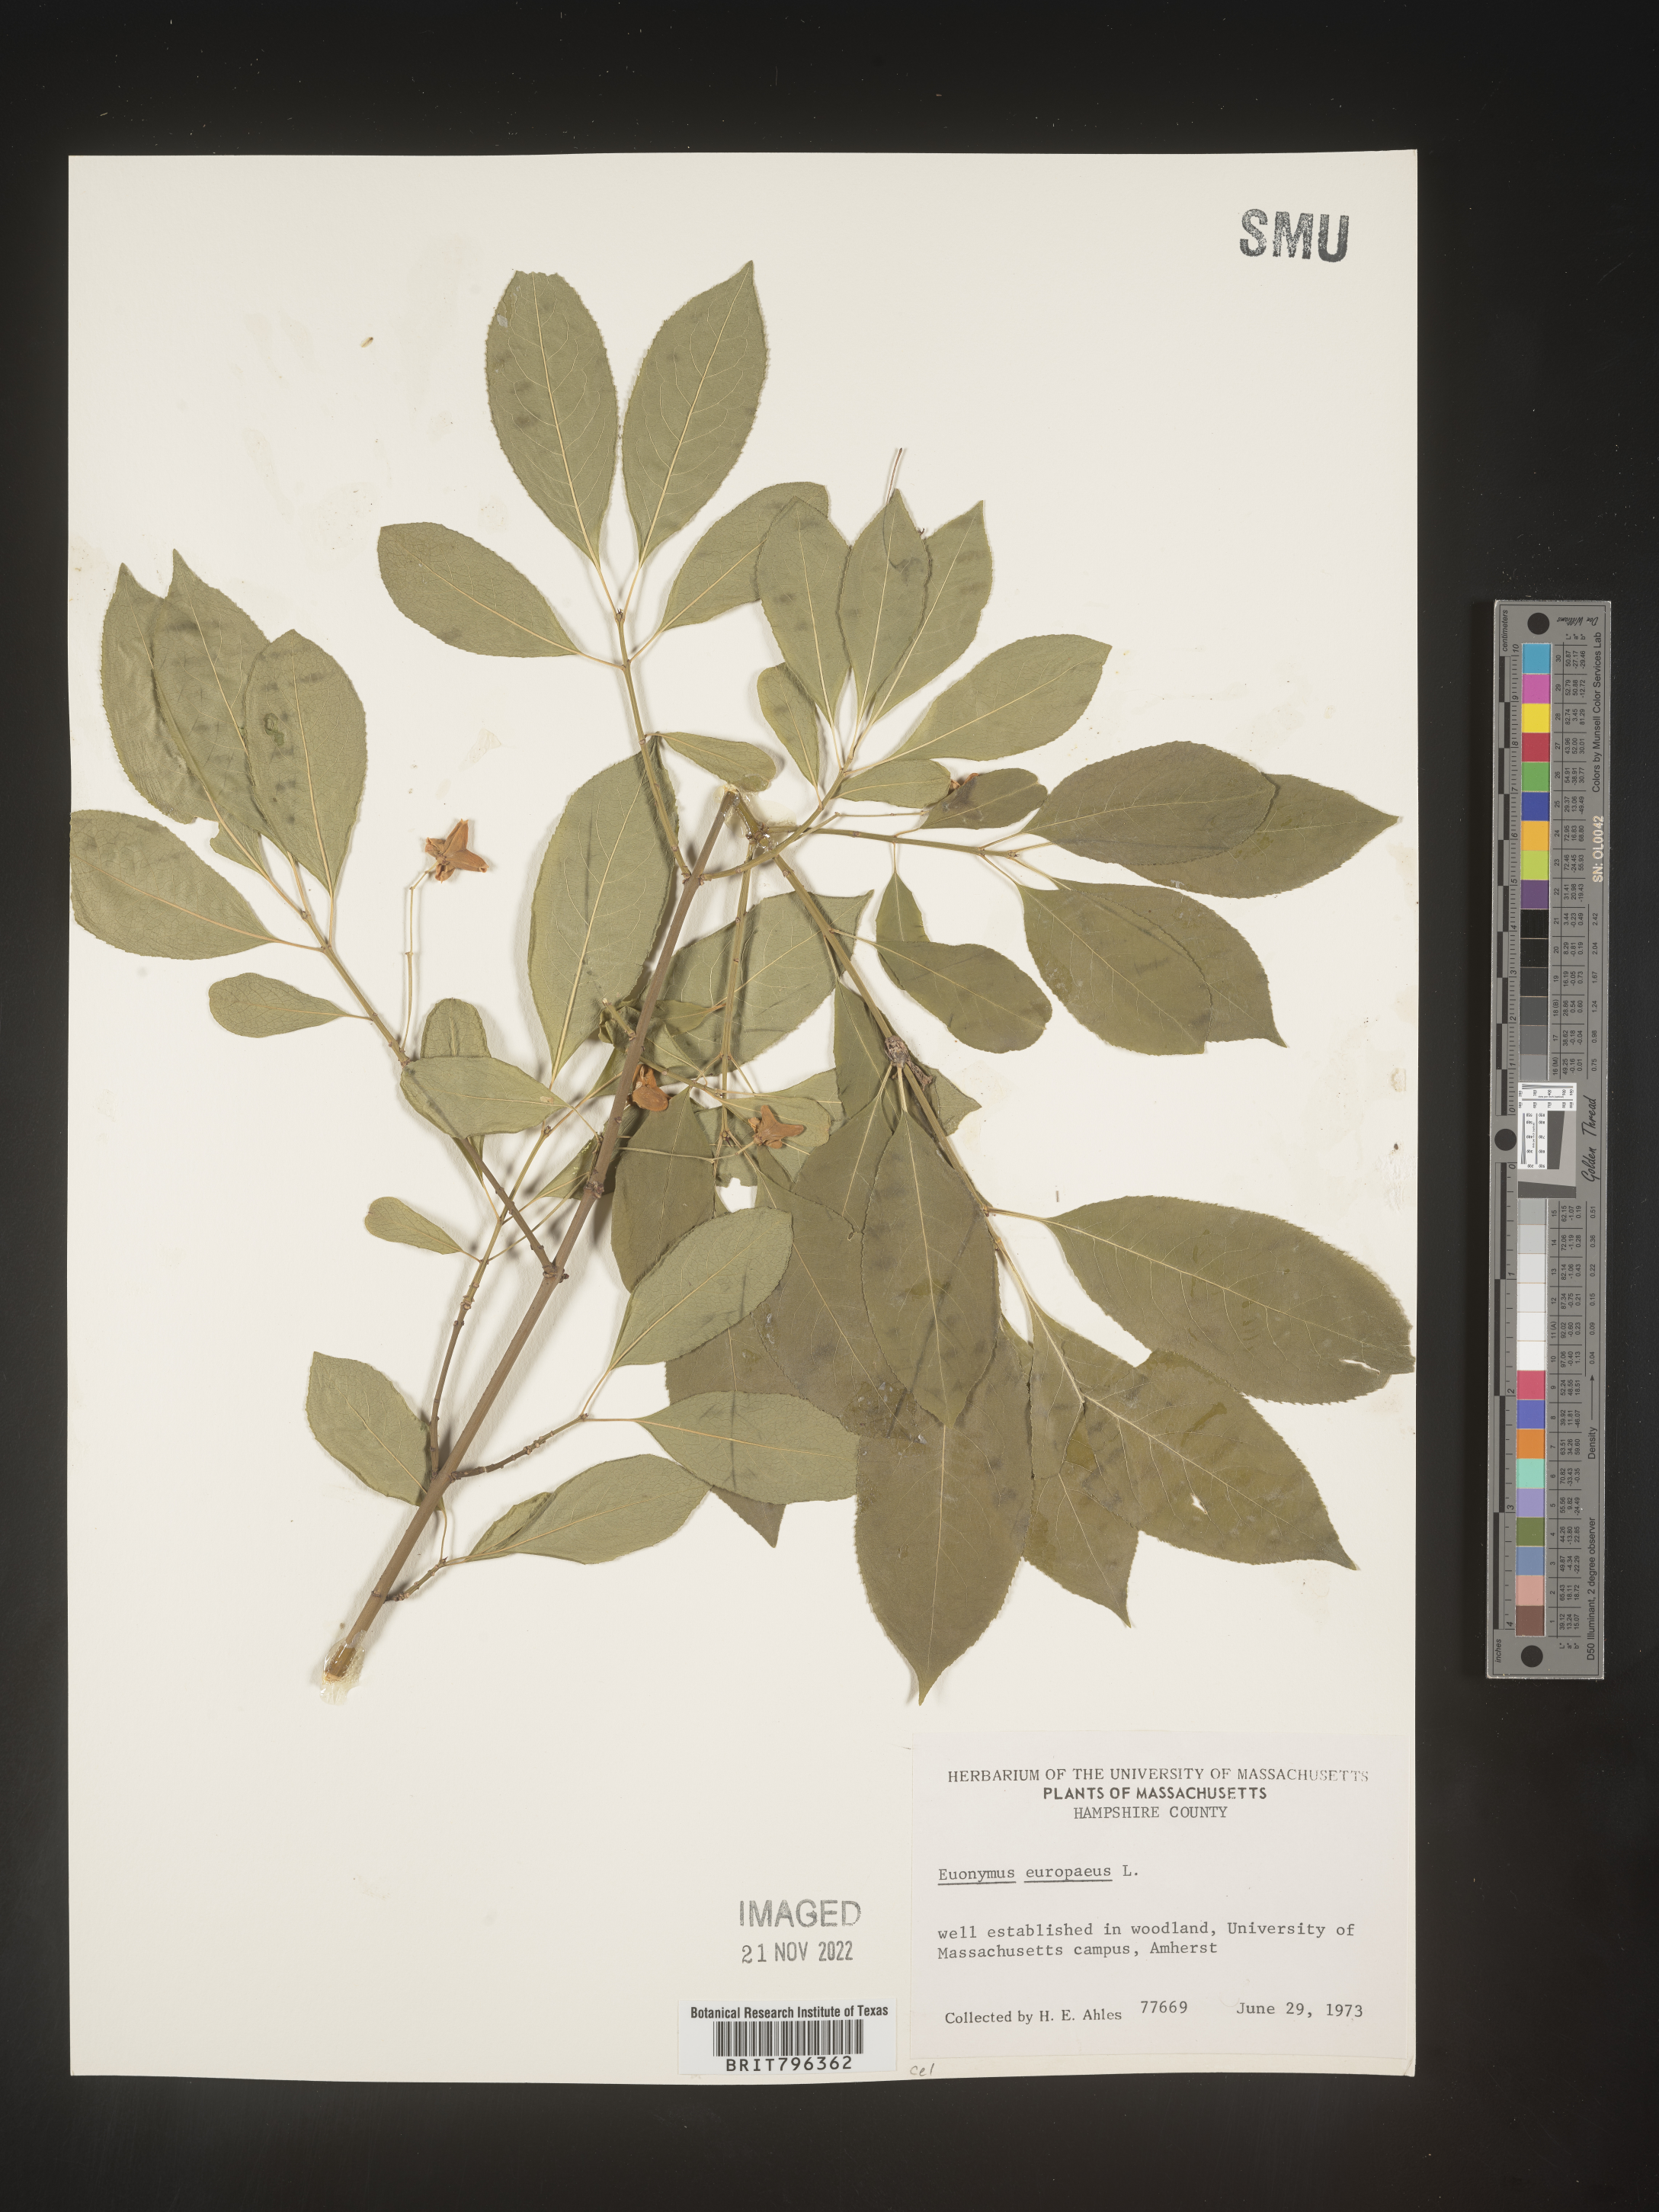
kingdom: Plantae
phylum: Tracheophyta
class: Magnoliopsida
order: Celastrales
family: Celastraceae
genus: Euonymus
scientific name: Euonymus europaeus
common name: Spindle
